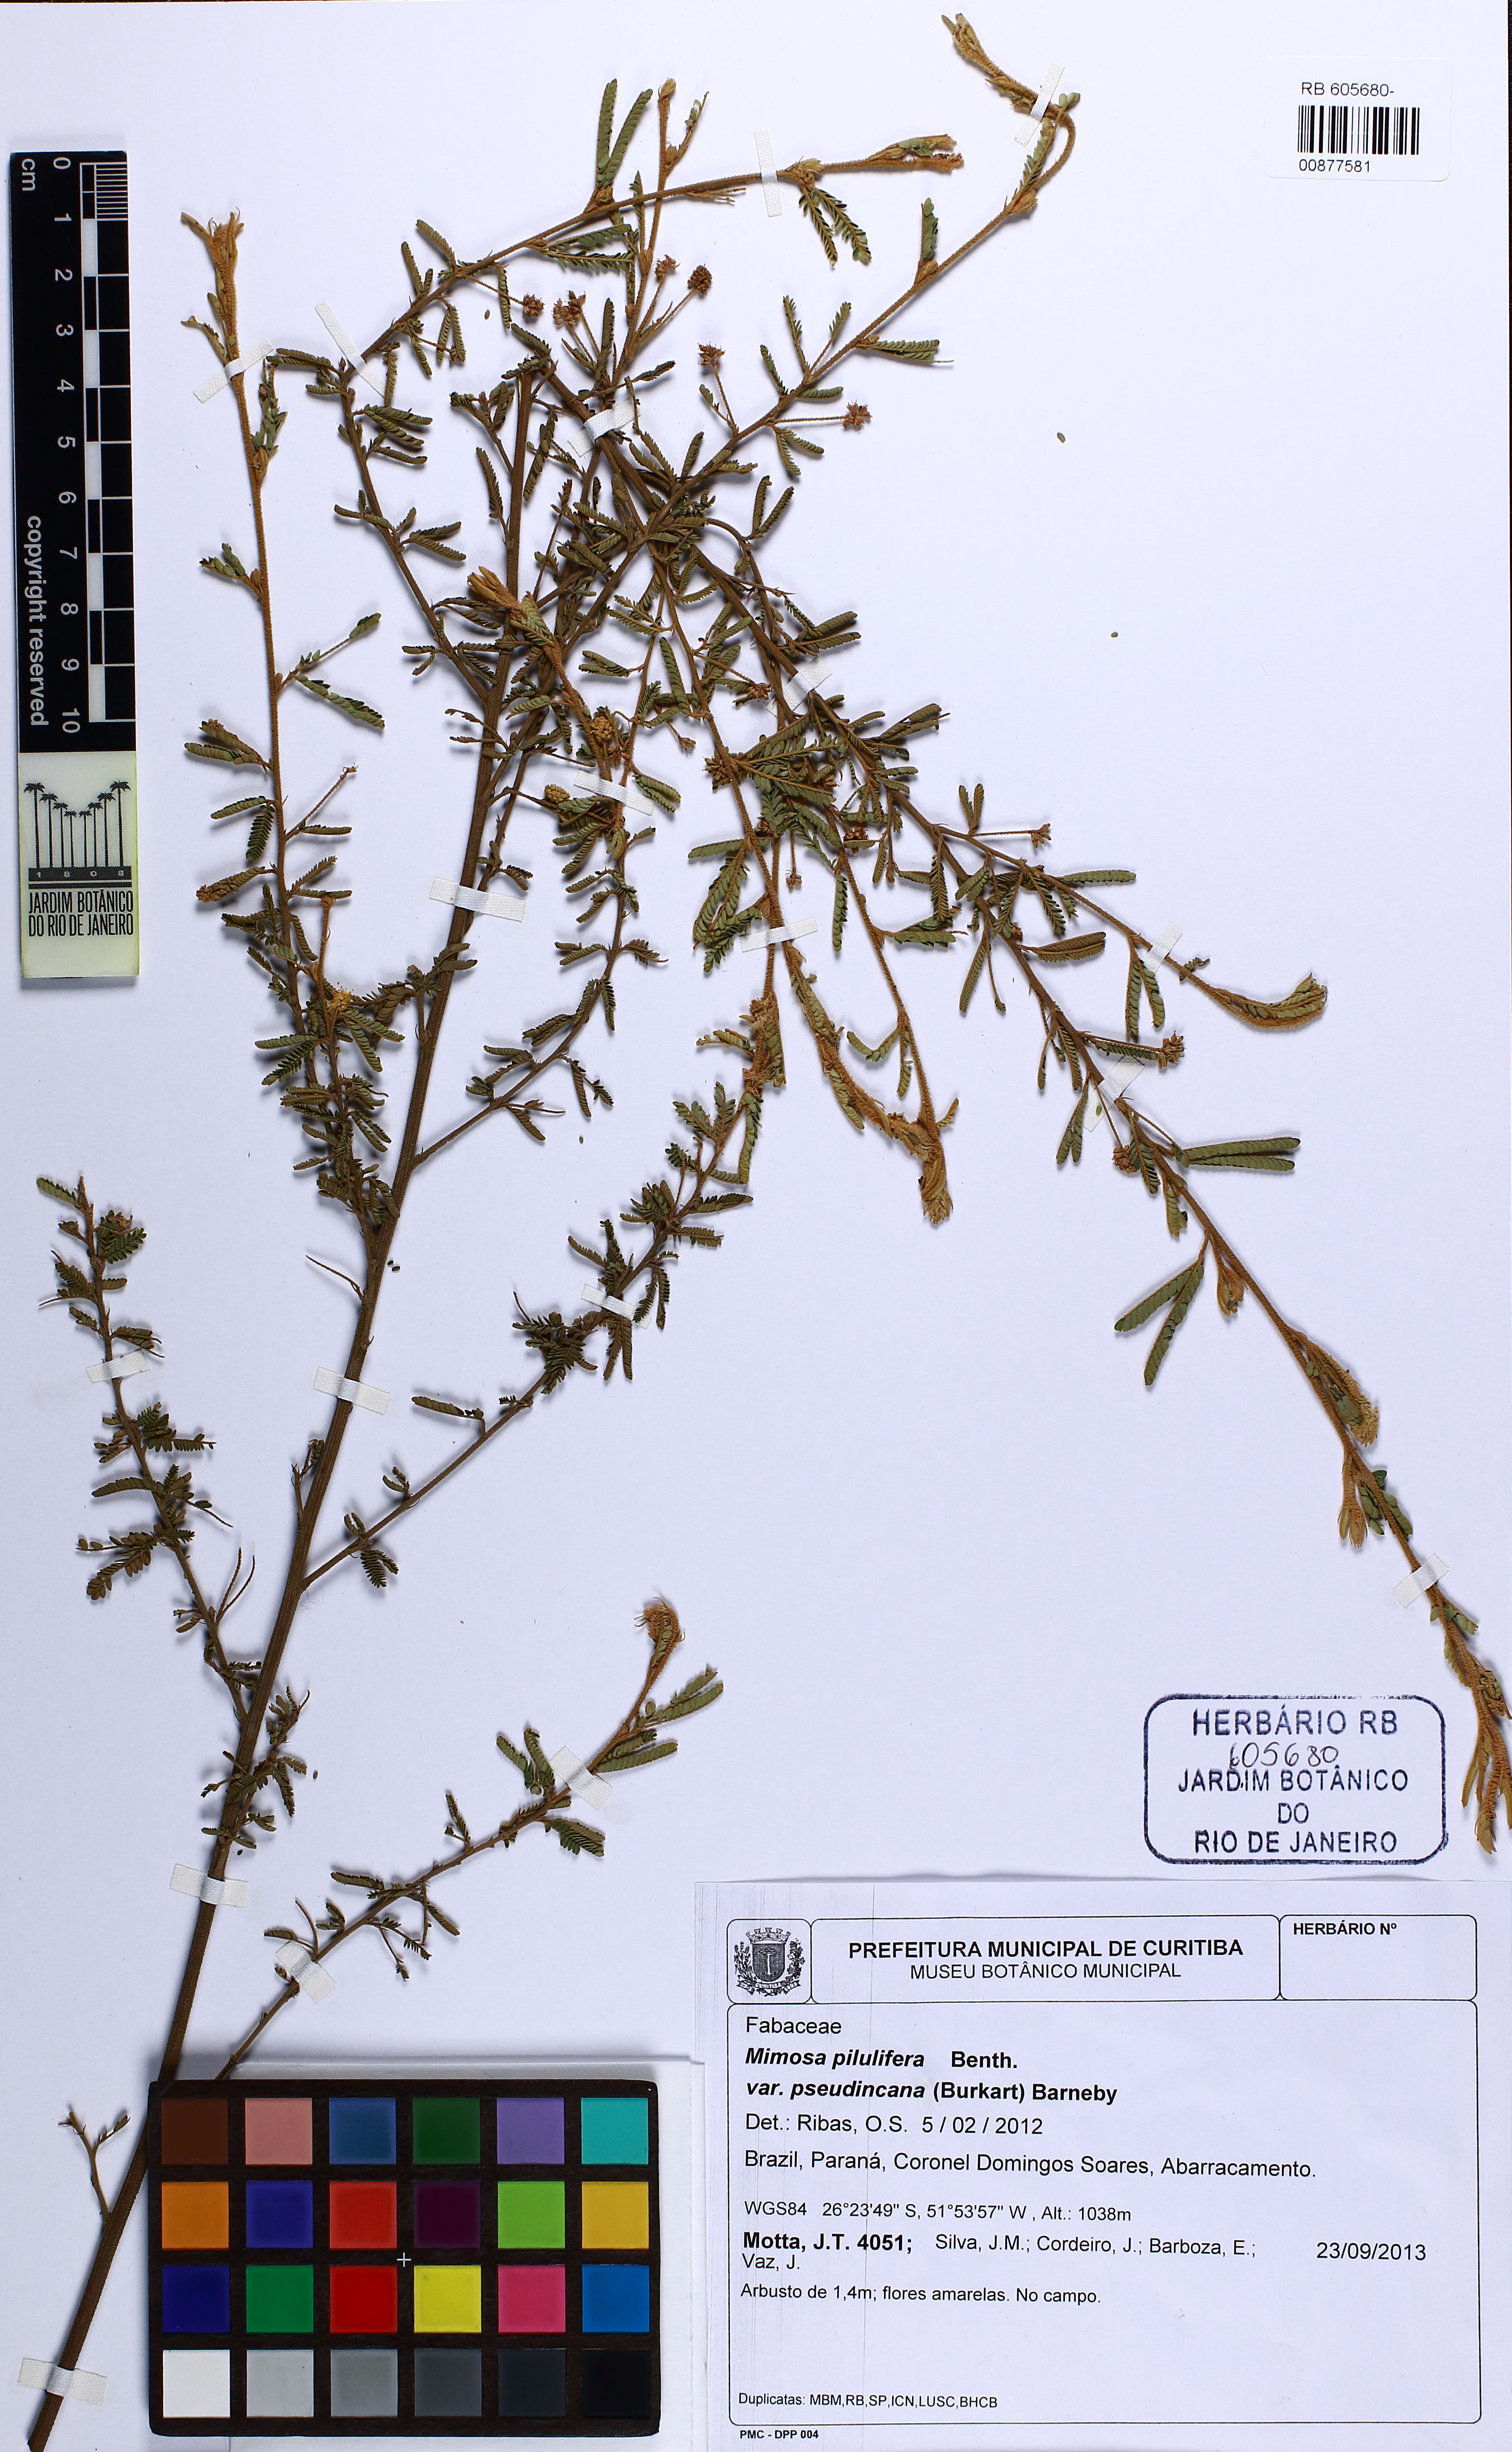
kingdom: Plantae
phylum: Tracheophyta
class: Magnoliopsida
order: Fabales
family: Fabaceae
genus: Mimosa
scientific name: Mimosa pilulifera
